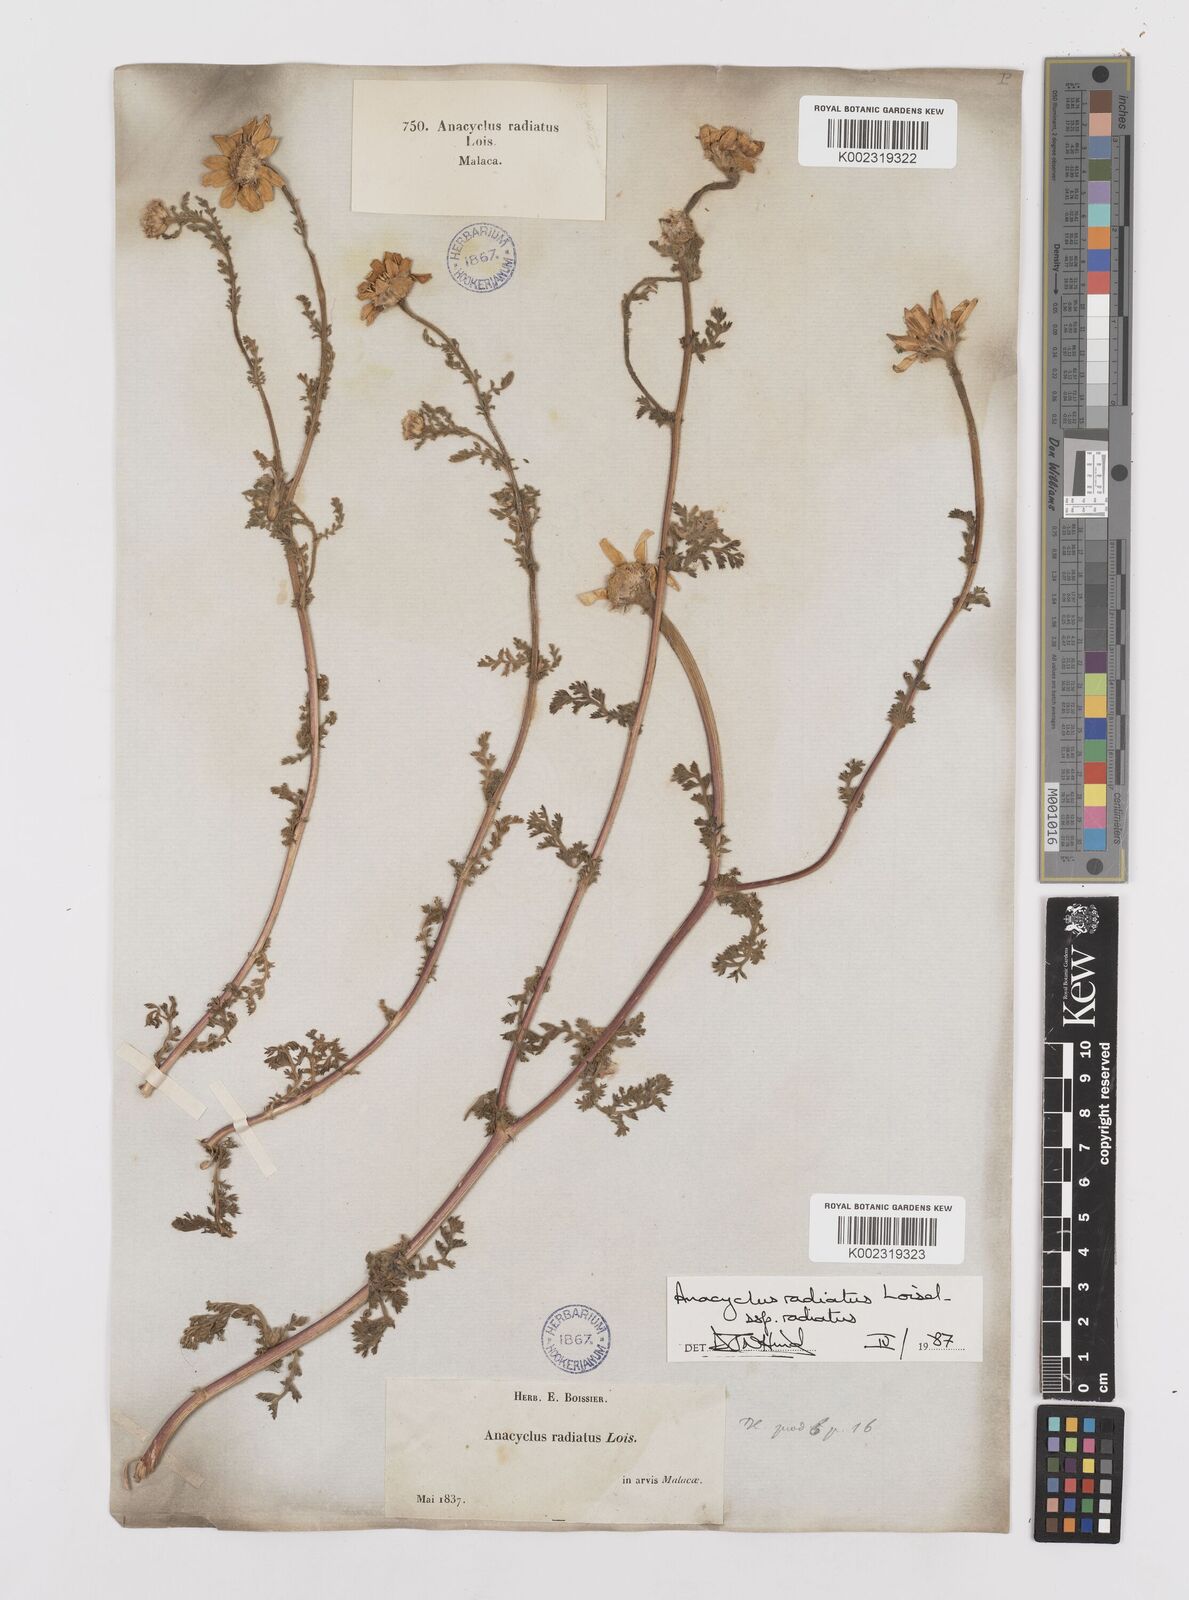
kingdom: Plantae
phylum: Tracheophyta
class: Magnoliopsida
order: Asterales
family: Asteraceae
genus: Anacyclus
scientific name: Anacyclus radiatus
